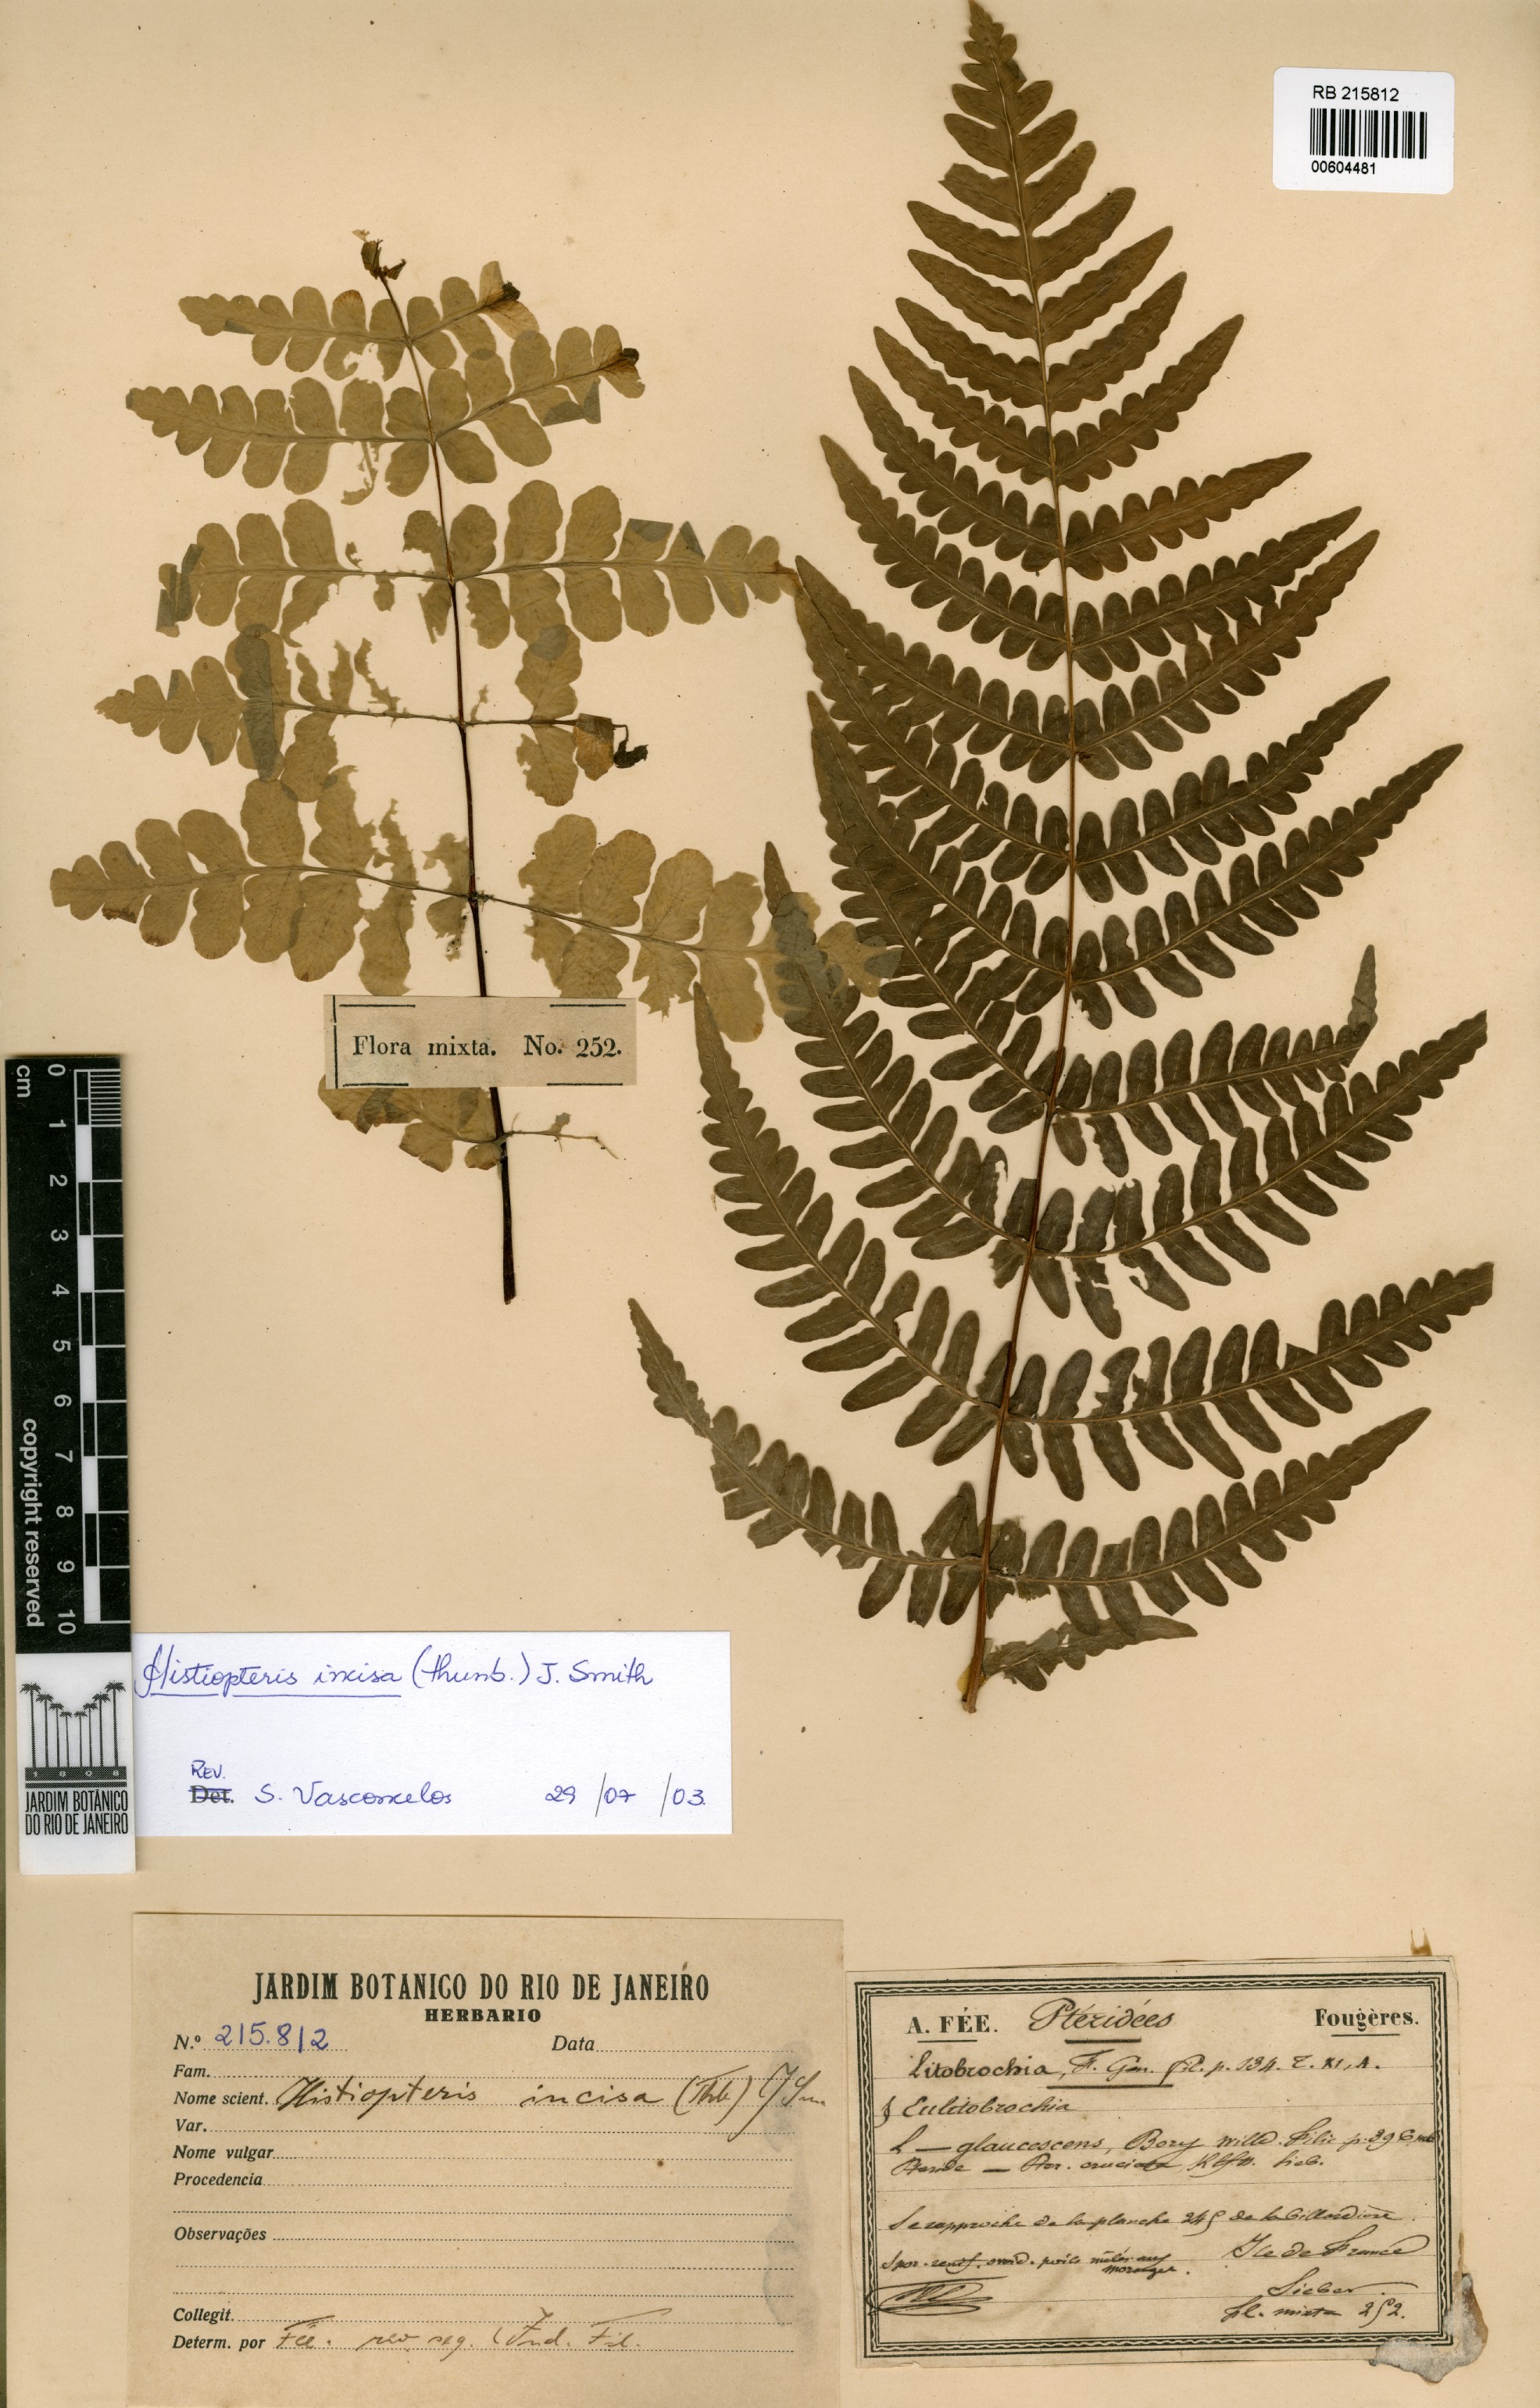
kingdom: Plantae
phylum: Tracheophyta
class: Polypodiopsida
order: Polypodiales
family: Dennstaedtiaceae
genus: Histiopteris
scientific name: Histiopteris incisa
